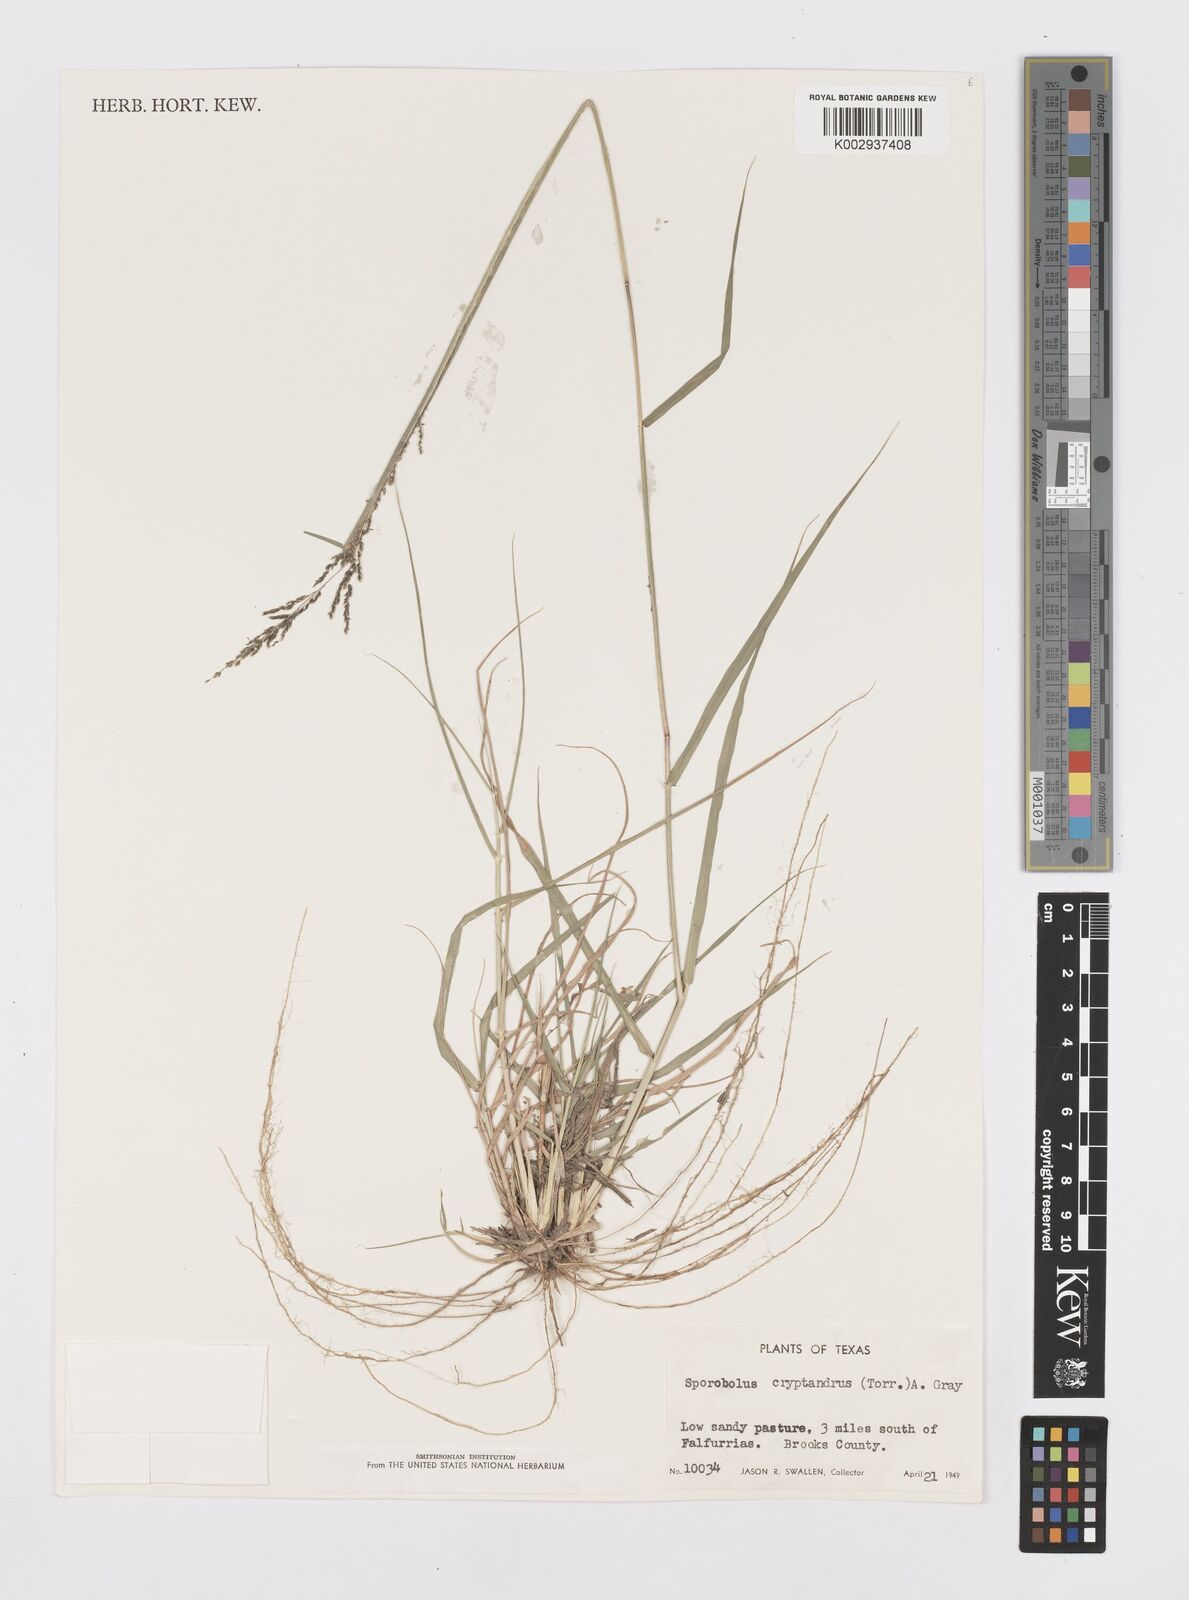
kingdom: Plantae
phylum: Tracheophyta
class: Liliopsida
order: Poales
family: Poaceae
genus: Sporobolus
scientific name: Sporobolus cryptandrus
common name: Sand dropseed
